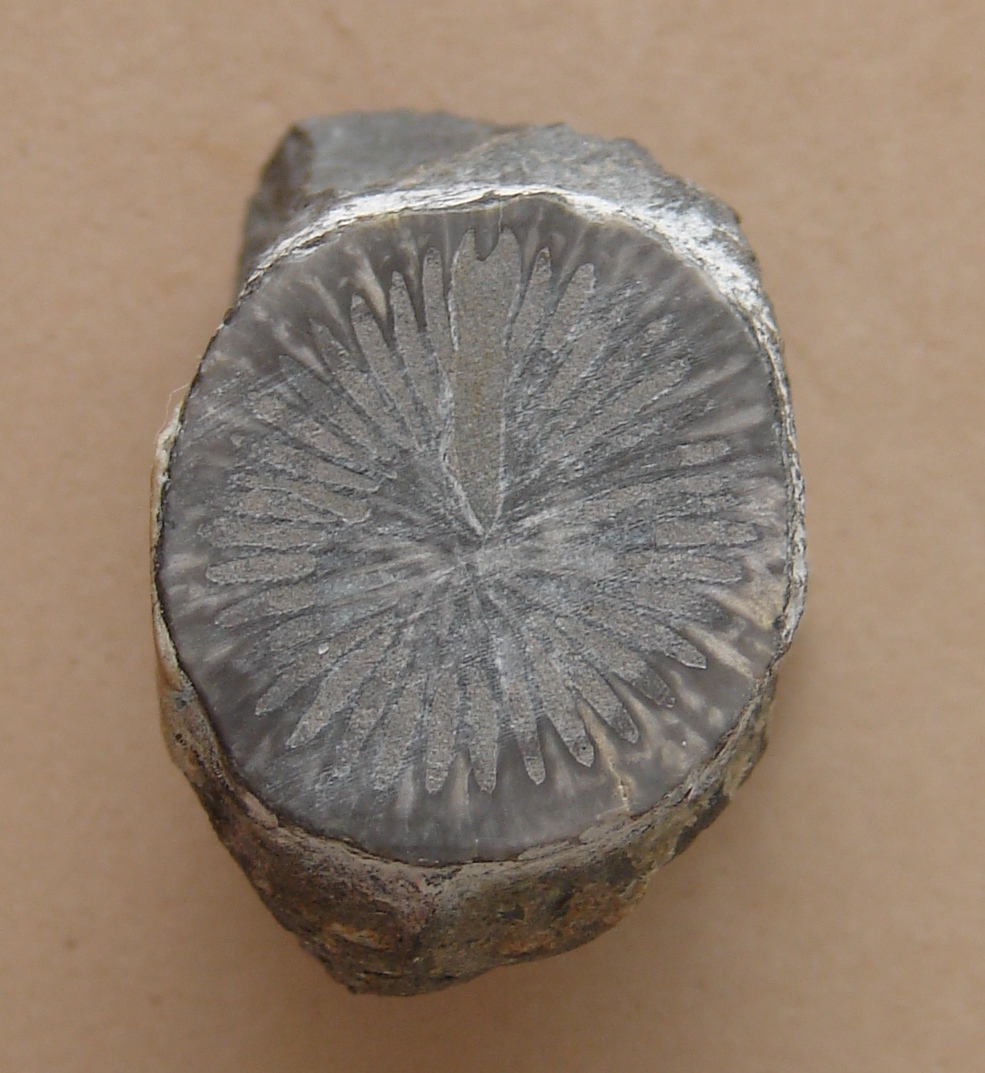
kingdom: Animalia
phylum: Cnidaria
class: Anthozoa
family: Hapsiphyllidae
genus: Hapsiphyllum
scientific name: Hapsiphyllum
